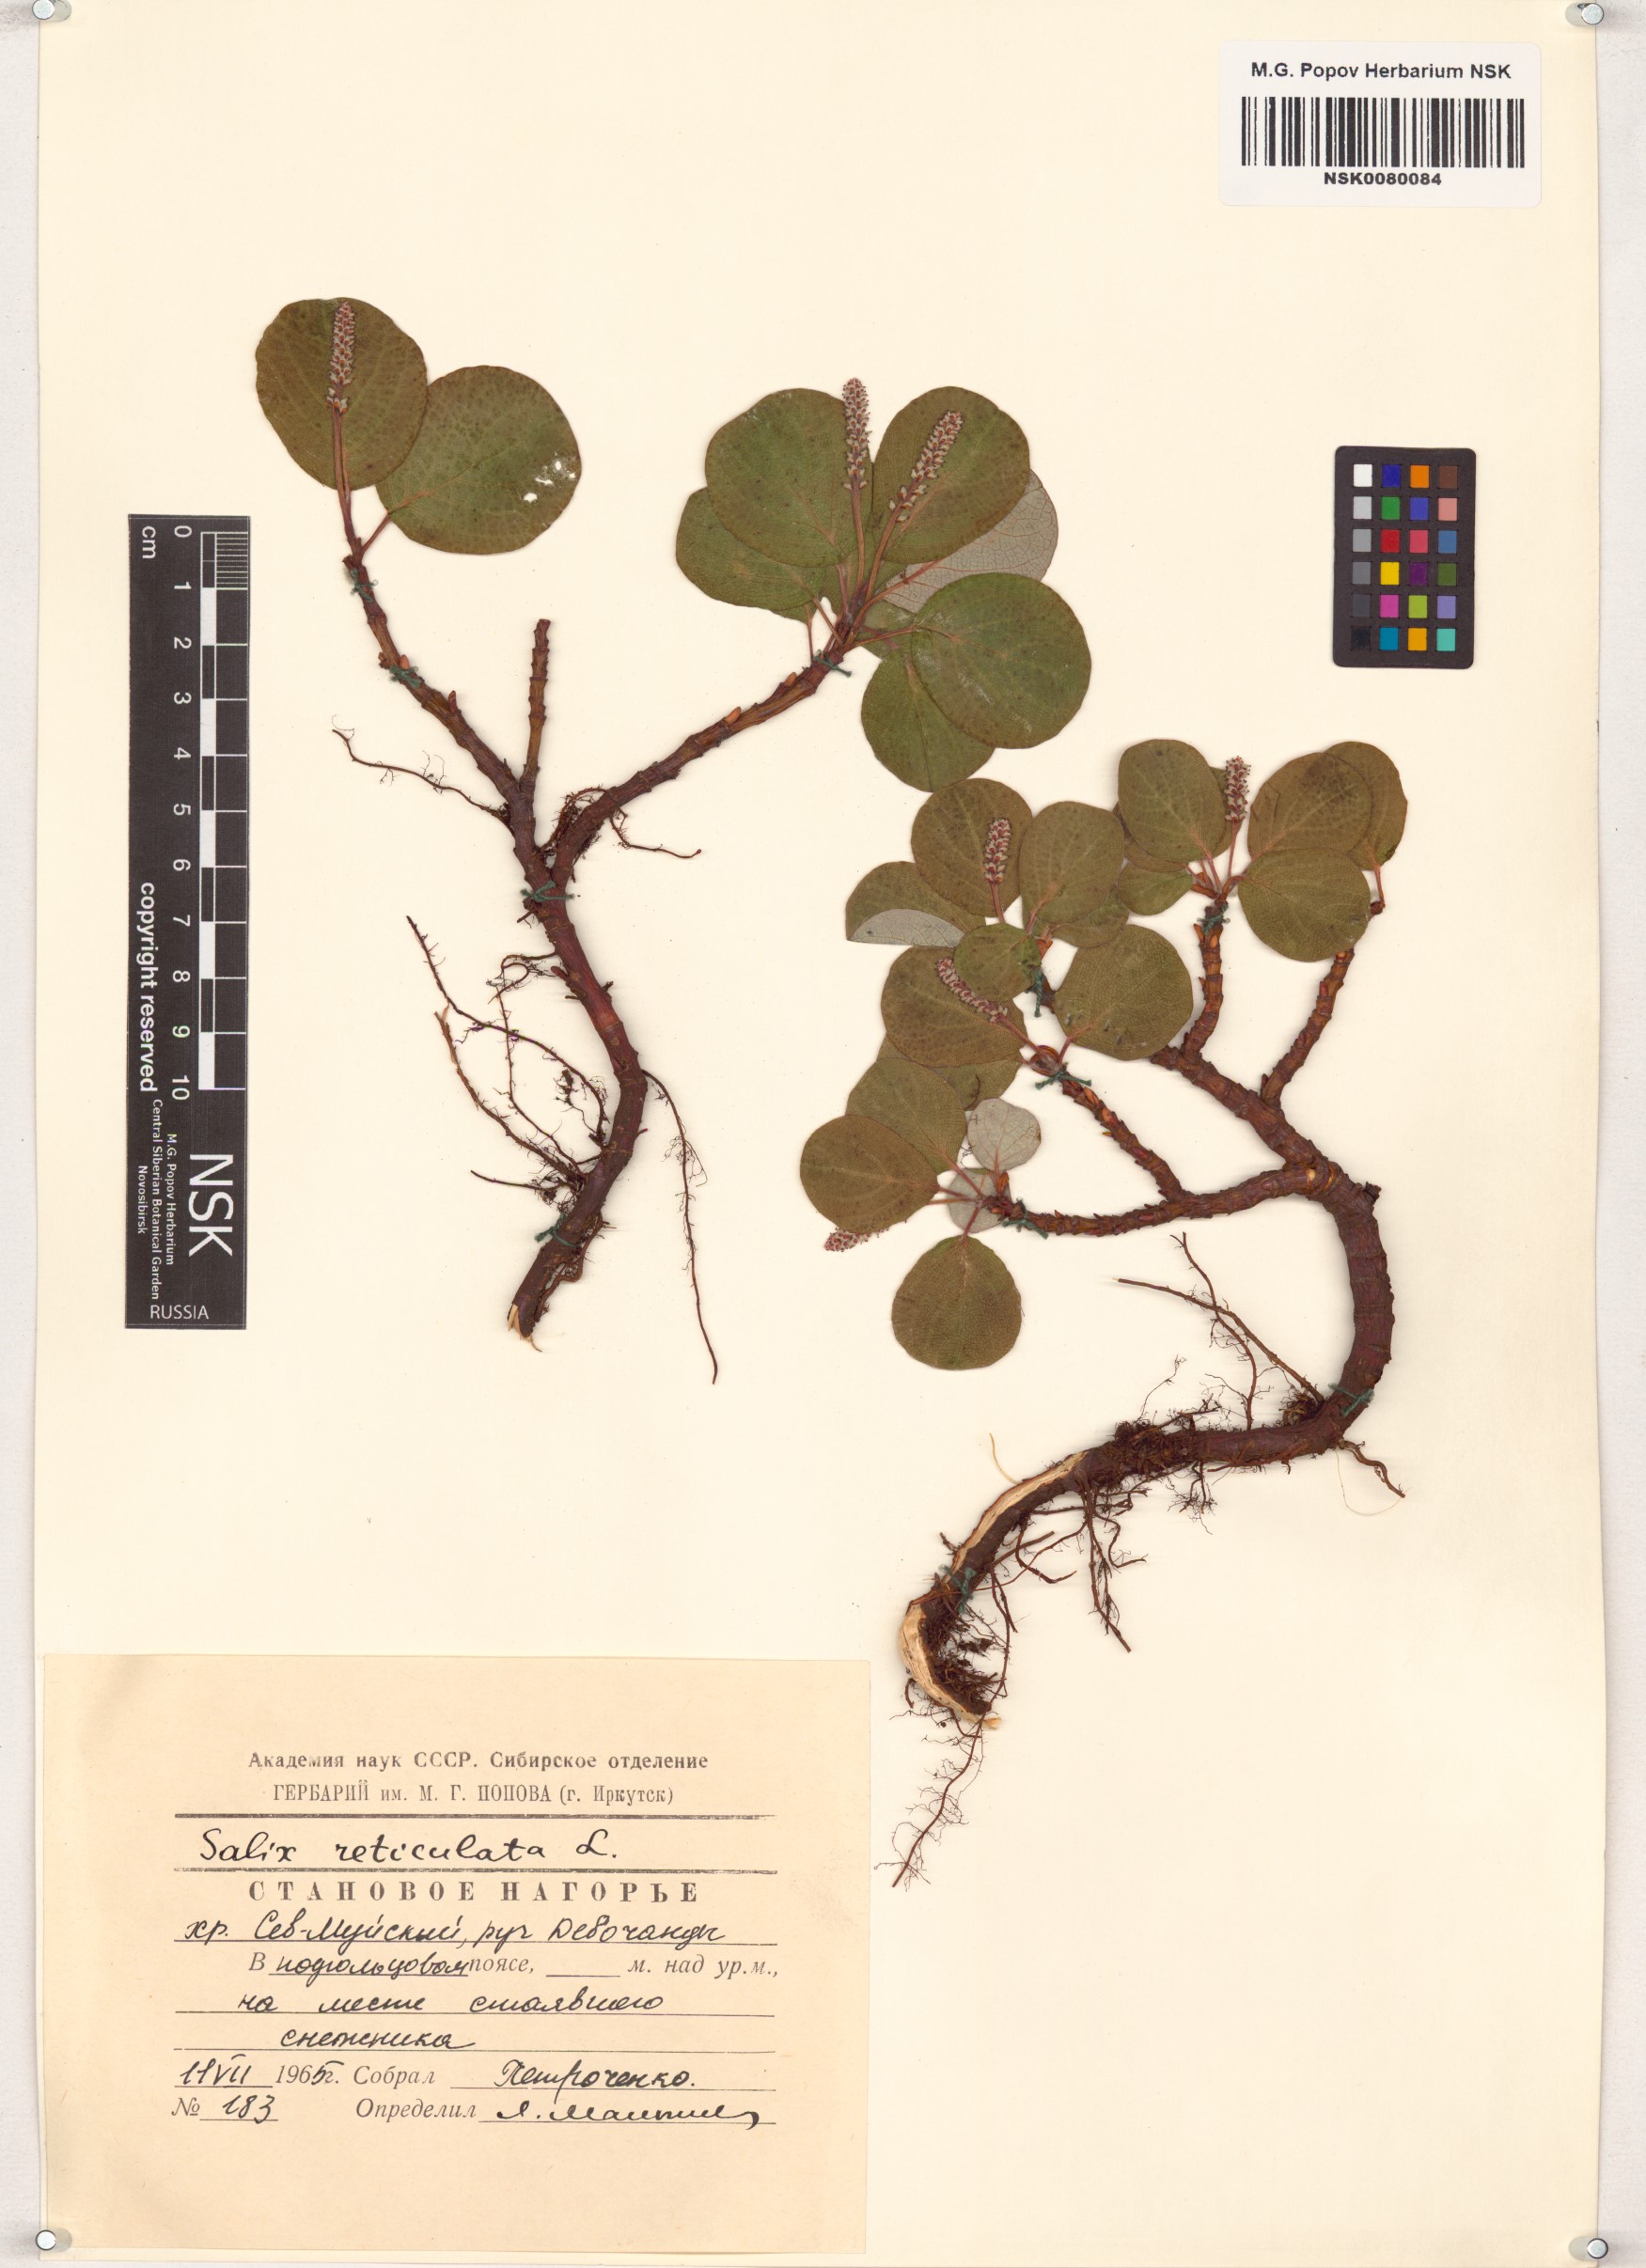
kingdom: Plantae
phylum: Tracheophyta
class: Magnoliopsida
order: Malpighiales
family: Salicaceae
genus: Salix
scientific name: Salix reticulata
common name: Net-leaved willow
